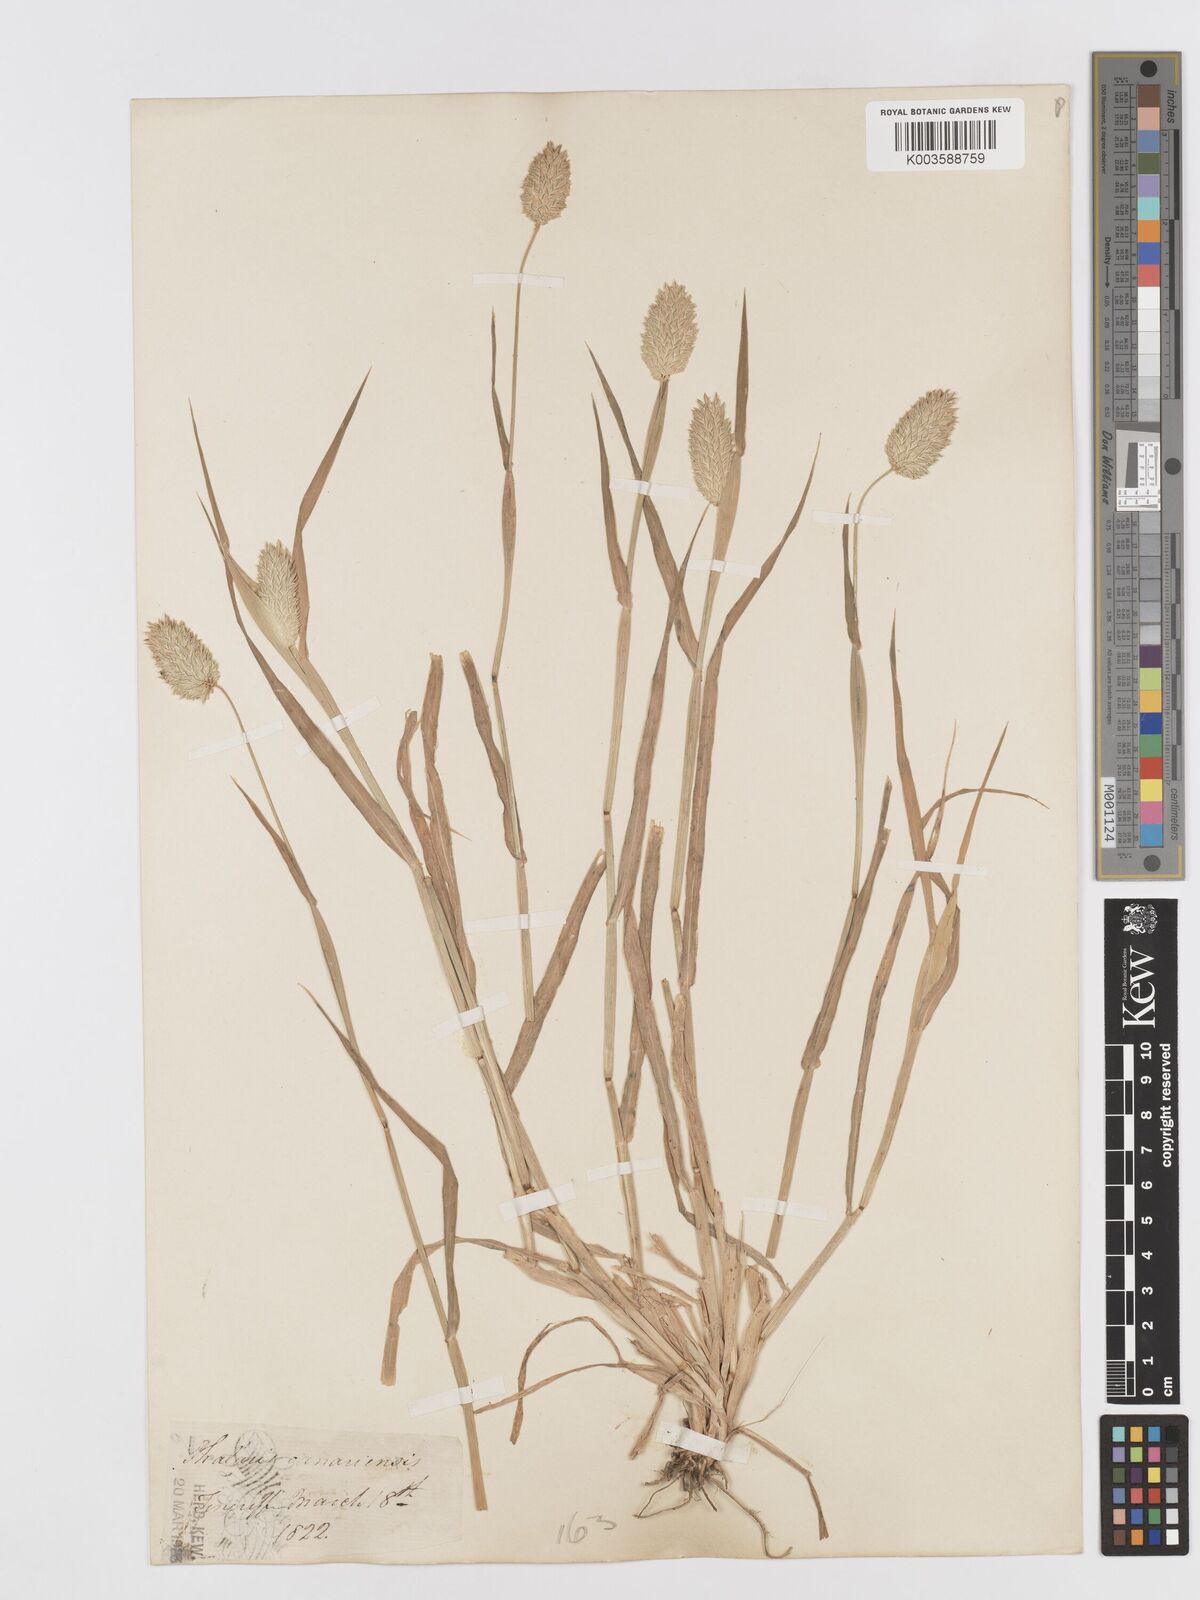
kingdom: Plantae
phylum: Tracheophyta
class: Liliopsida
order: Poales
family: Poaceae
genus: Phalaris
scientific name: Phalaris brachystachys
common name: Confused canary-grass
